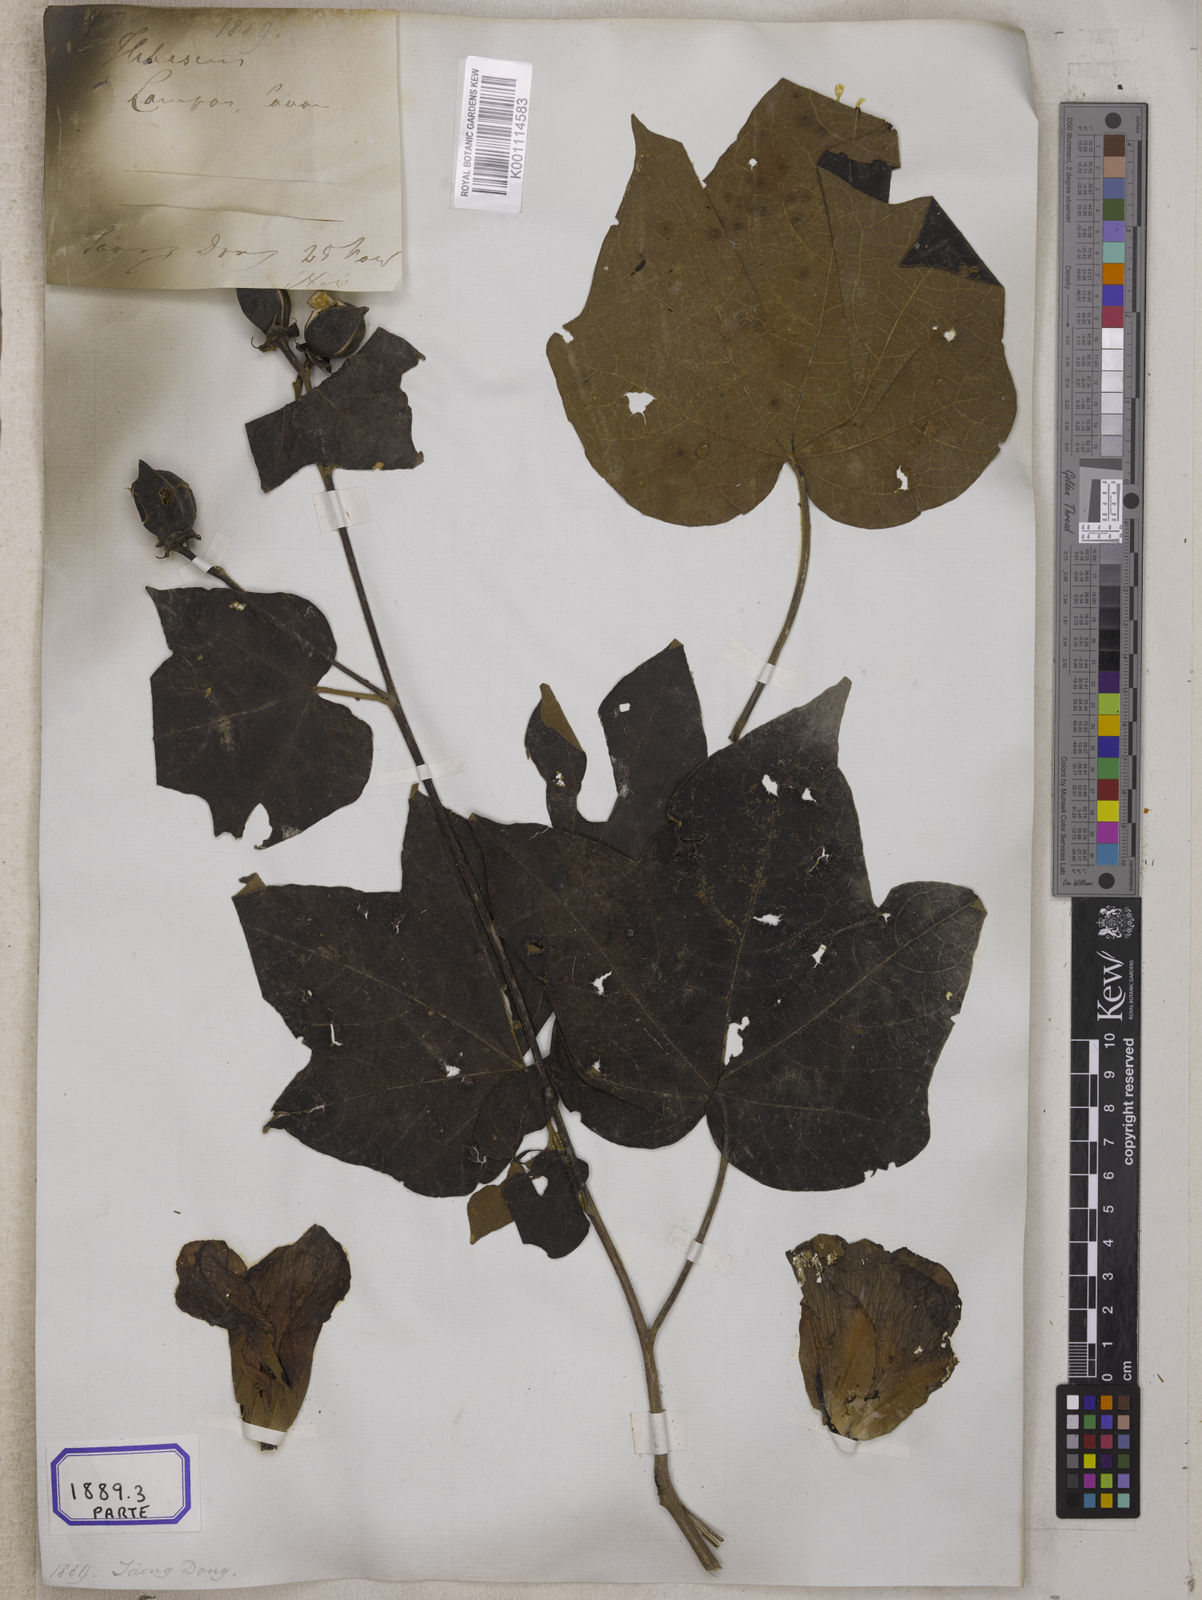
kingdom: Plantae
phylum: Tracheophyta
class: Magnoliopsida
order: Malvales
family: Malvaceae
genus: Thespesia
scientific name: Thespesia lampas
